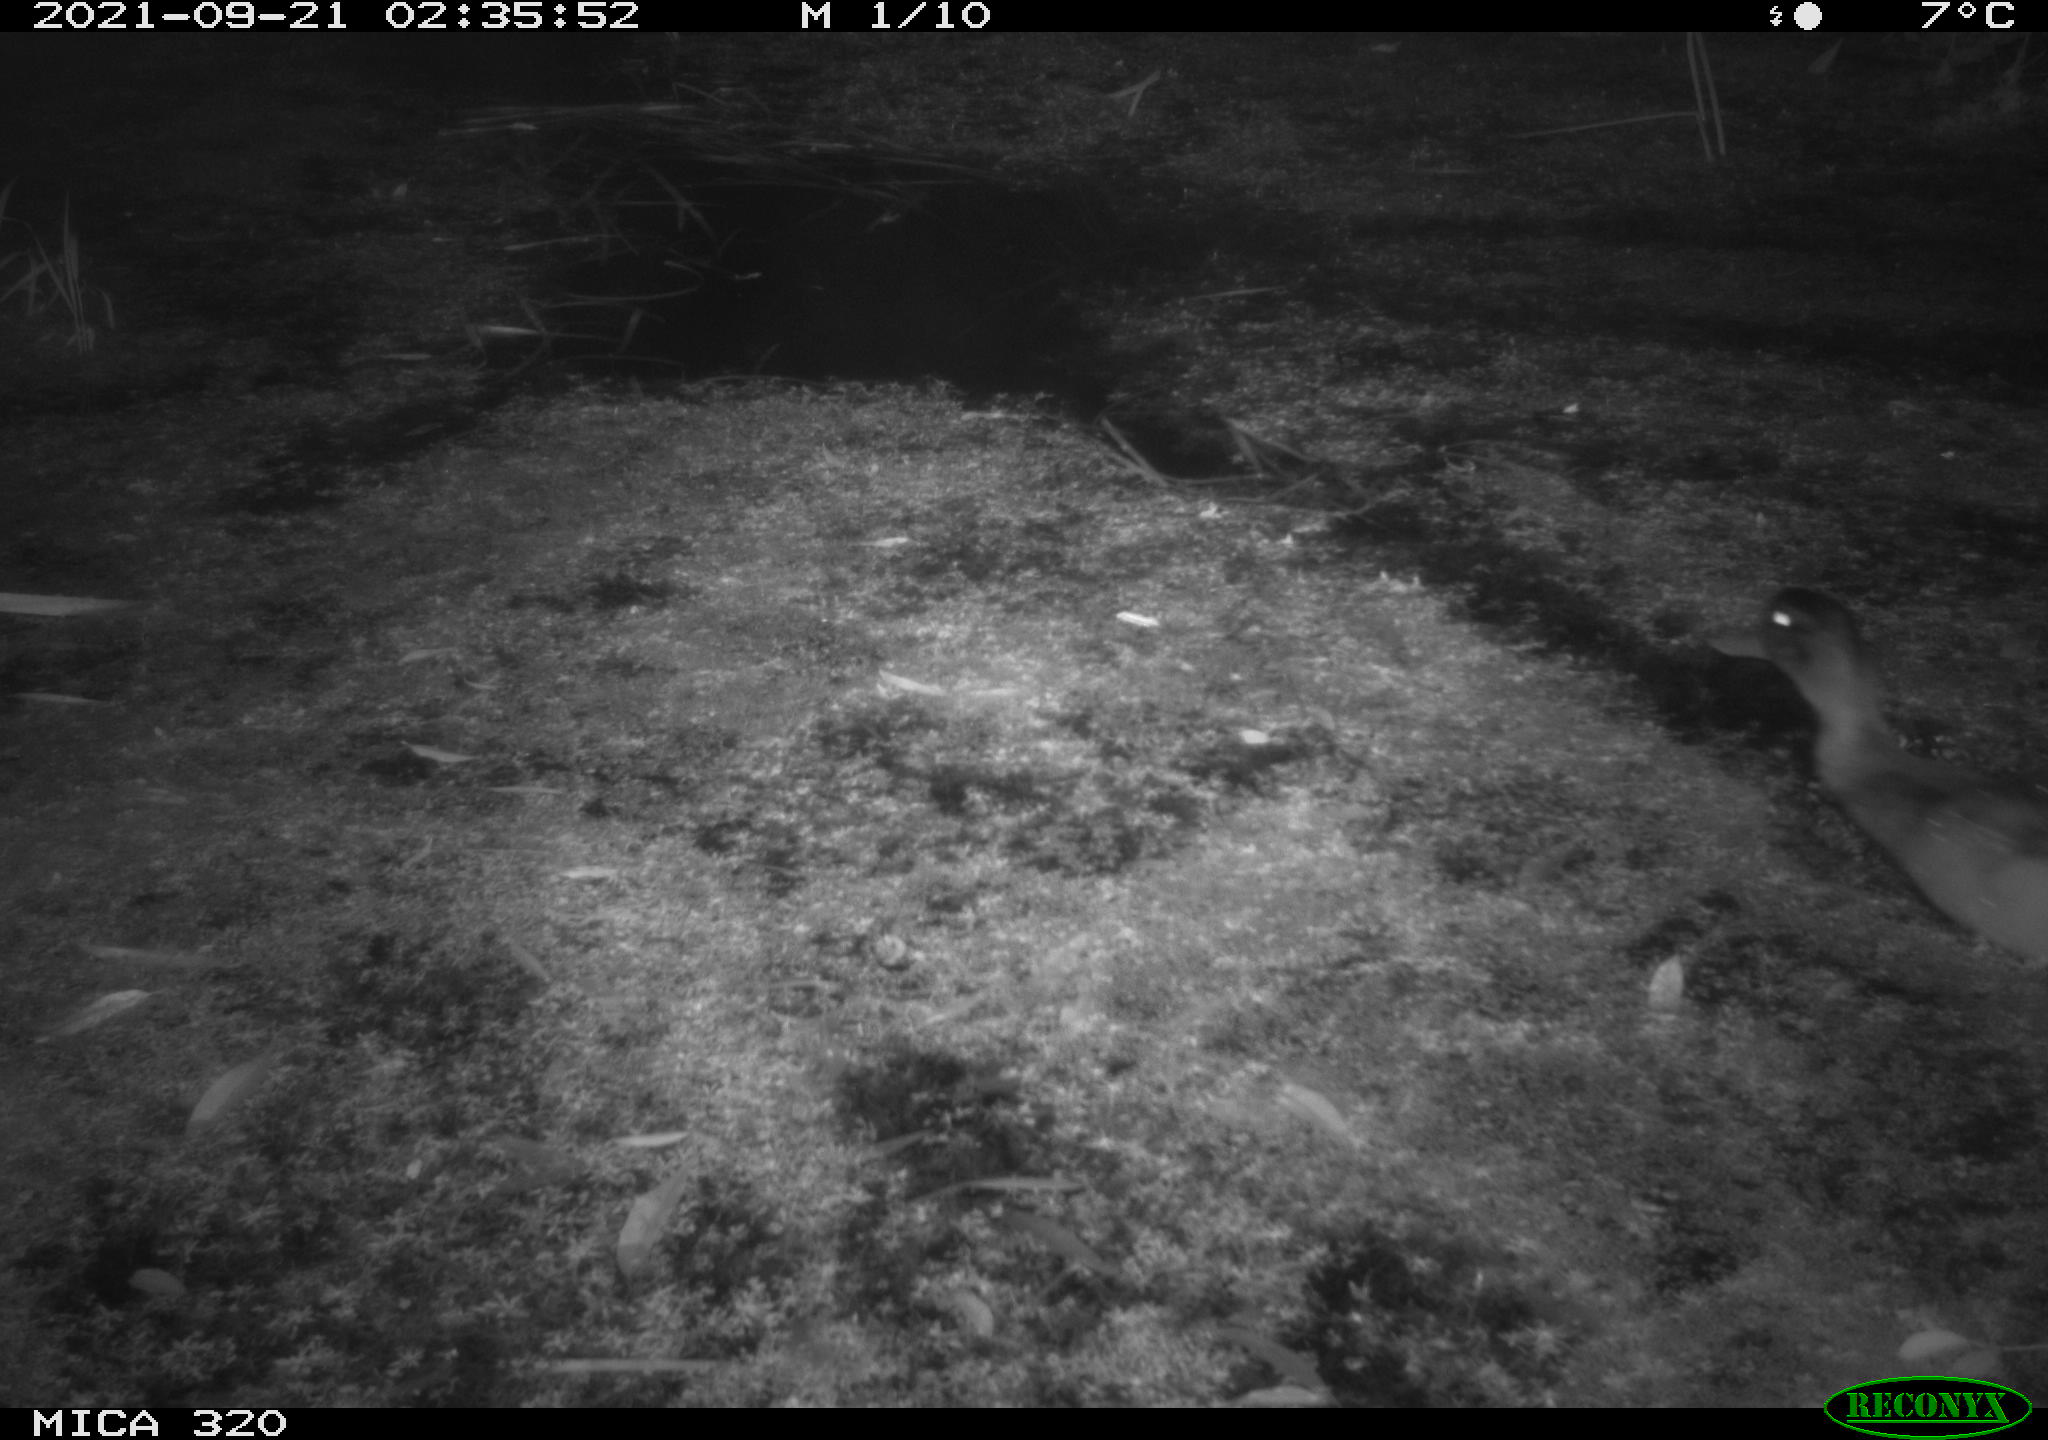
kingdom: Animalia
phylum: Chordata
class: Aves
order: Anseriformes
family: Anatidae
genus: Anas
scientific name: Anas platyrhynchos
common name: Mallard
